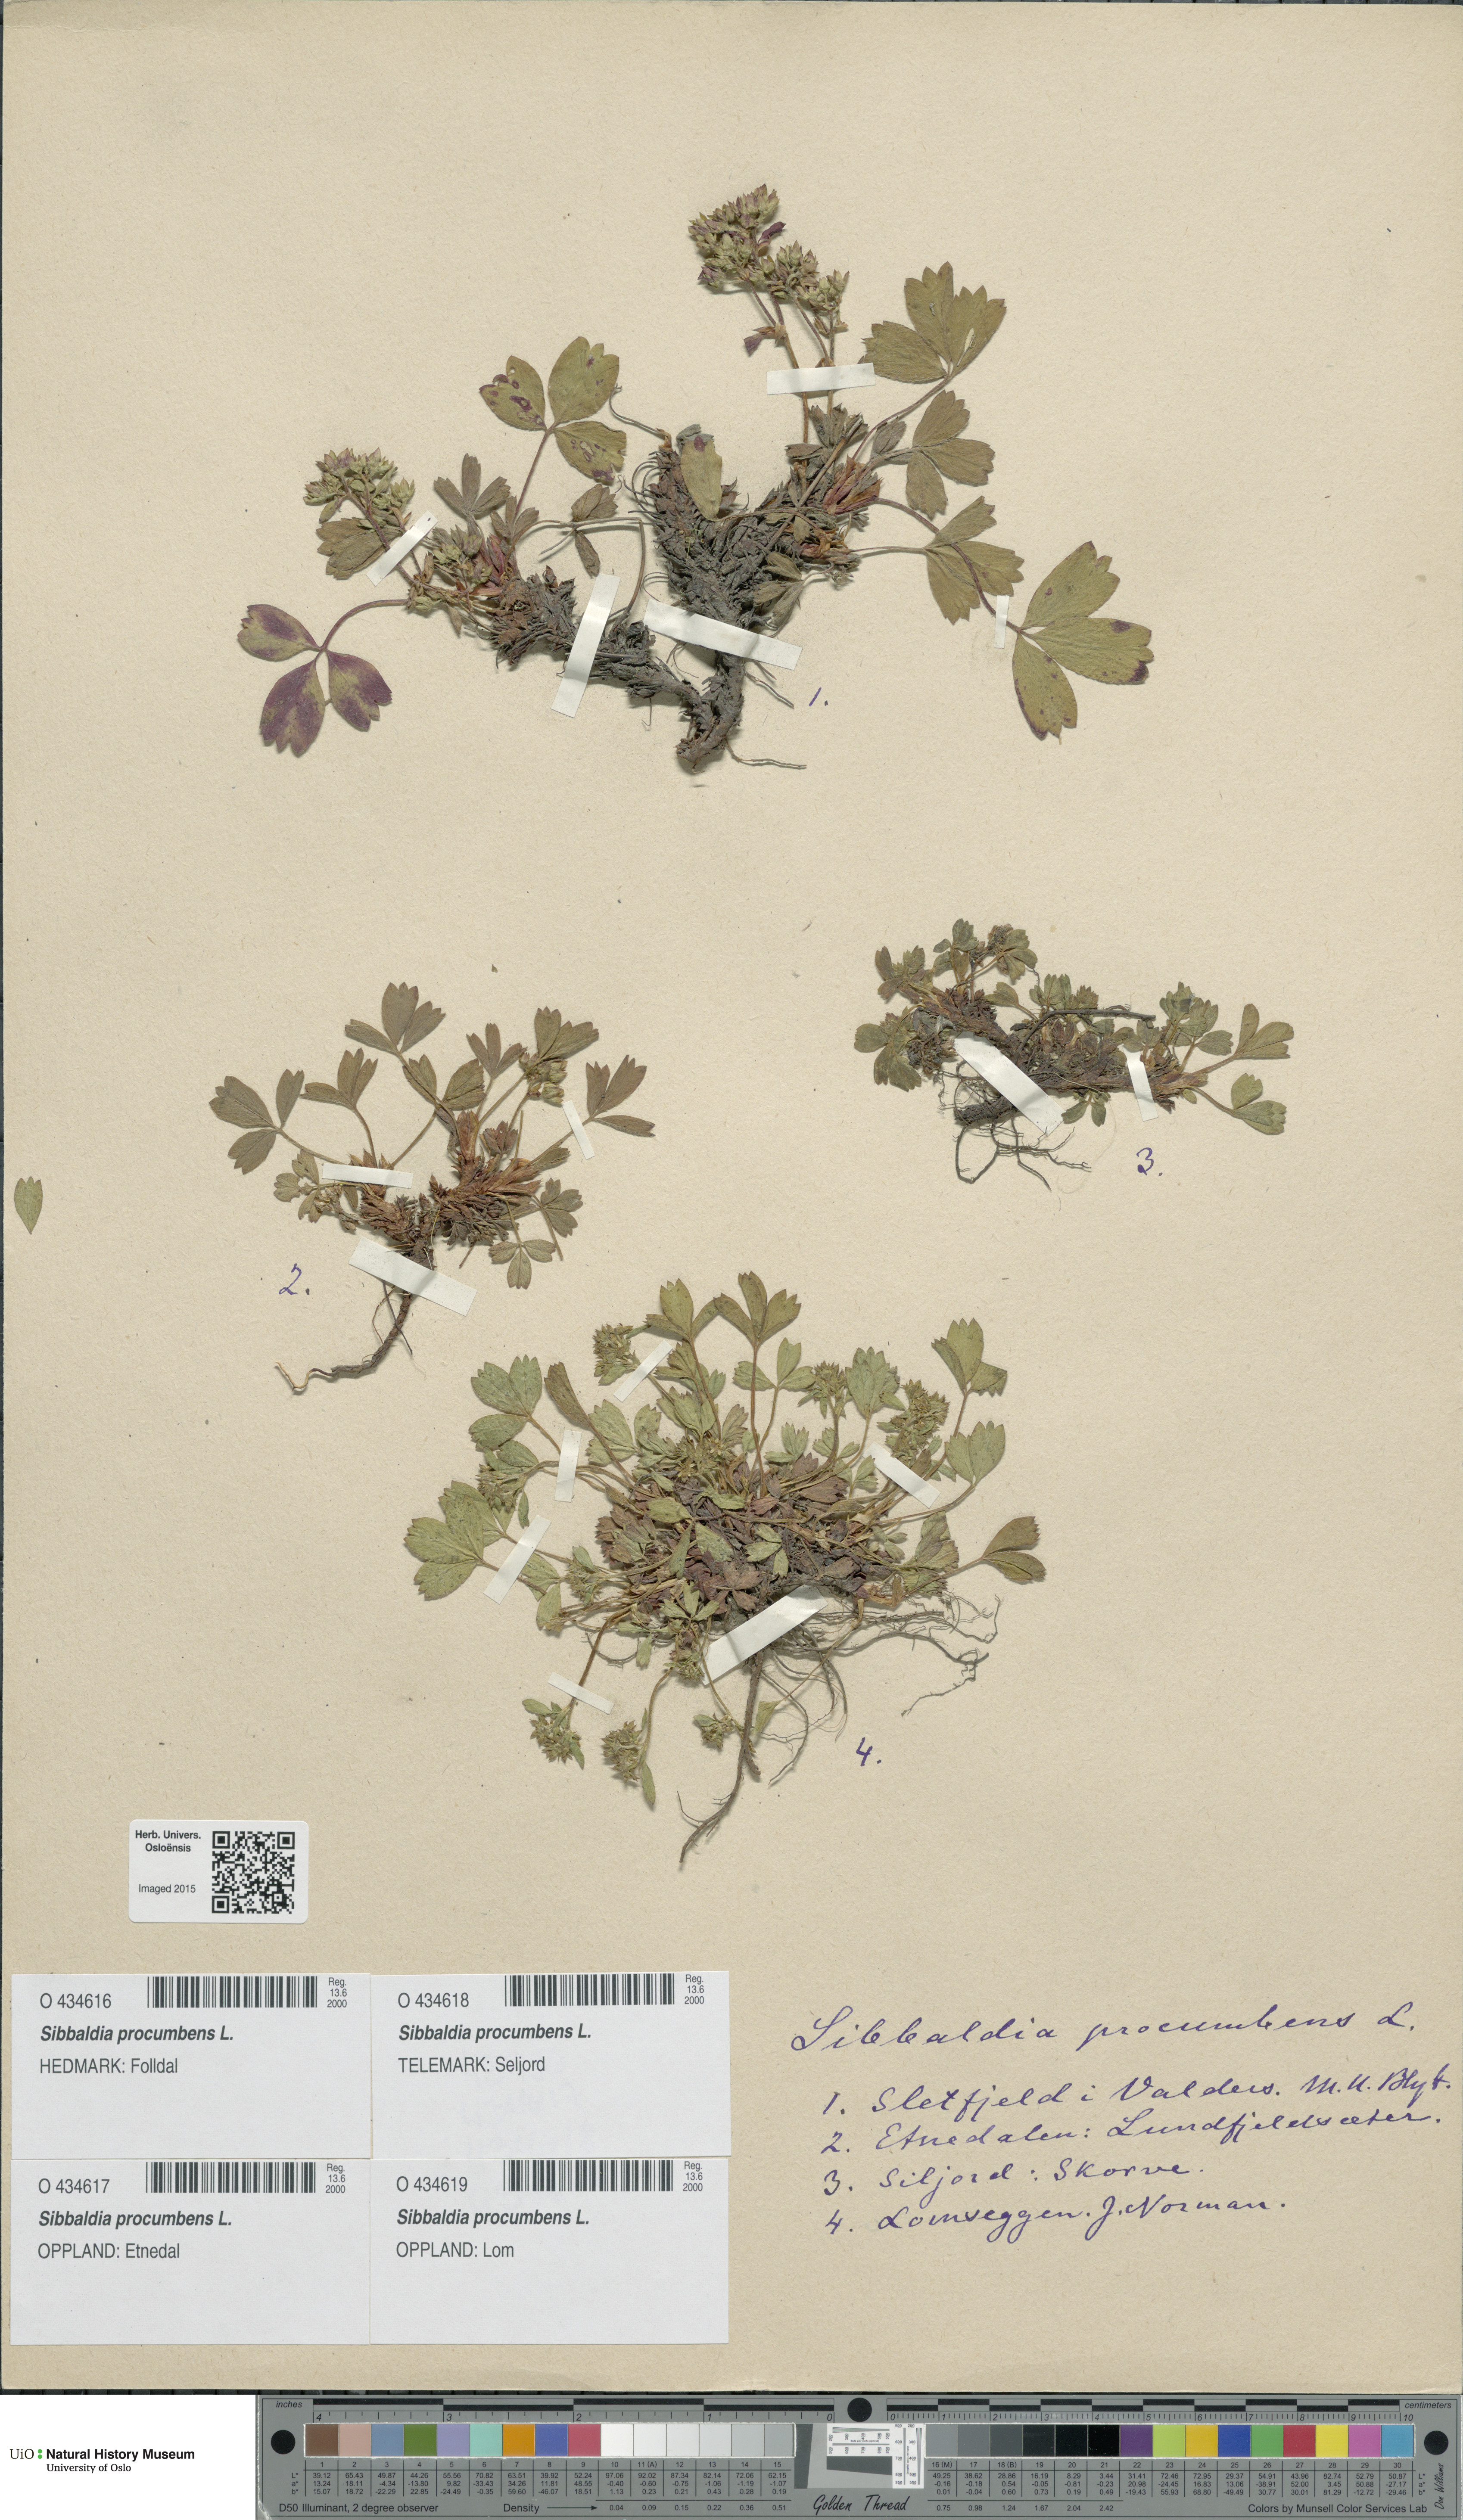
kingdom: Plantae
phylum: Tracheophyta
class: Magnoliopsida
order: Rosales
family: Rosaceae
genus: Sibbaldia
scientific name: Sibbaldia procumbens
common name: Creeping sibbaldia
